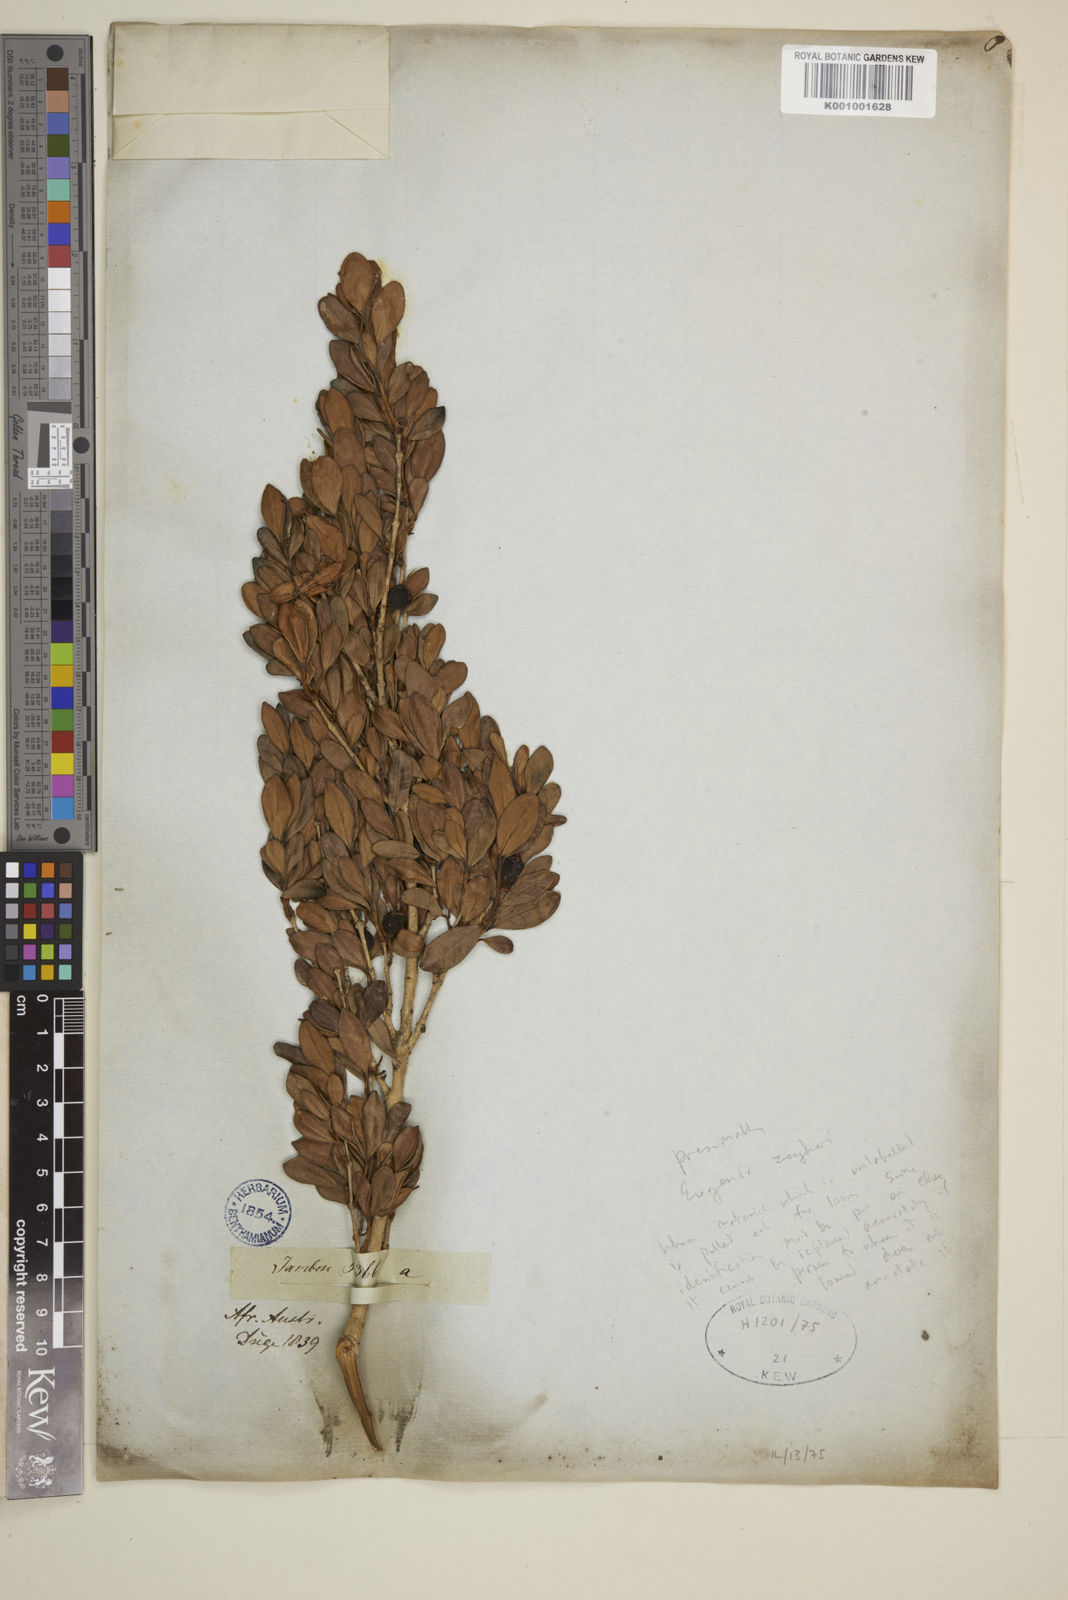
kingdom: Plantae
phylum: Tracheophyta
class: Magnoliopsida
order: Myrtales
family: Myrtaceae
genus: Eugenia
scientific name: Eugenia zeyheri
